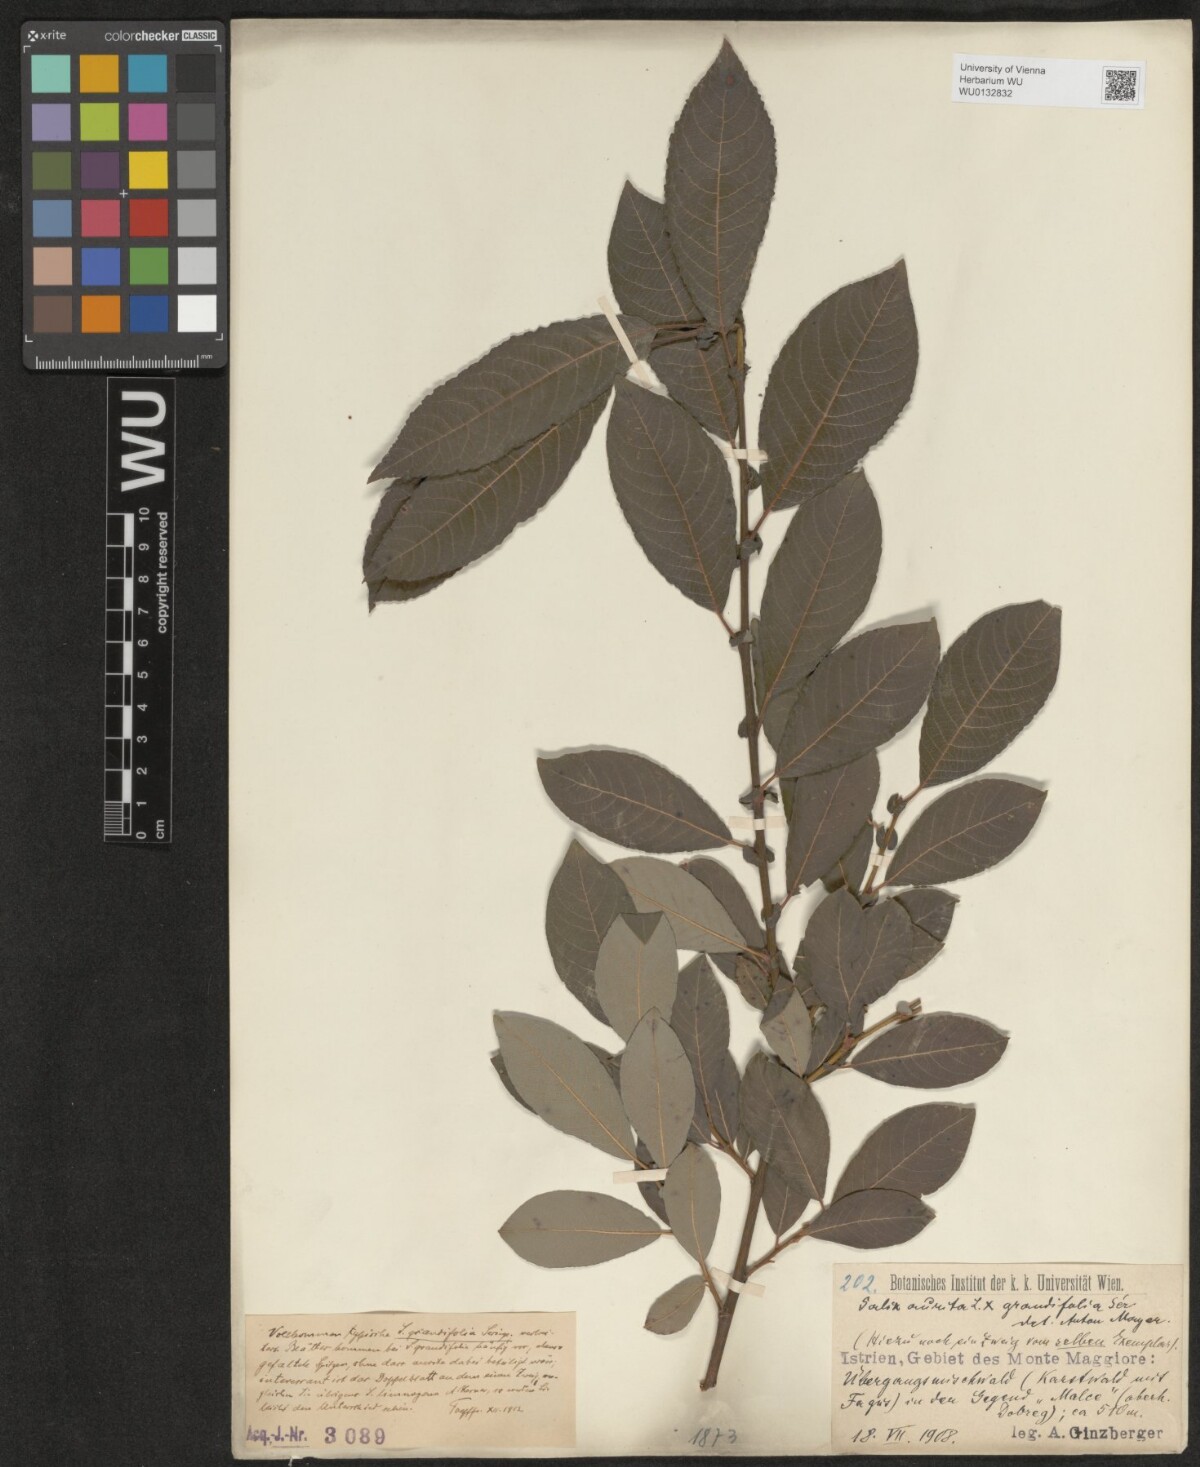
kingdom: Plantae
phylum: Tracheophyta
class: Magnoliopsida
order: Malpighiales
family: Salicaceae
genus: Salix
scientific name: Salix appendiculata
